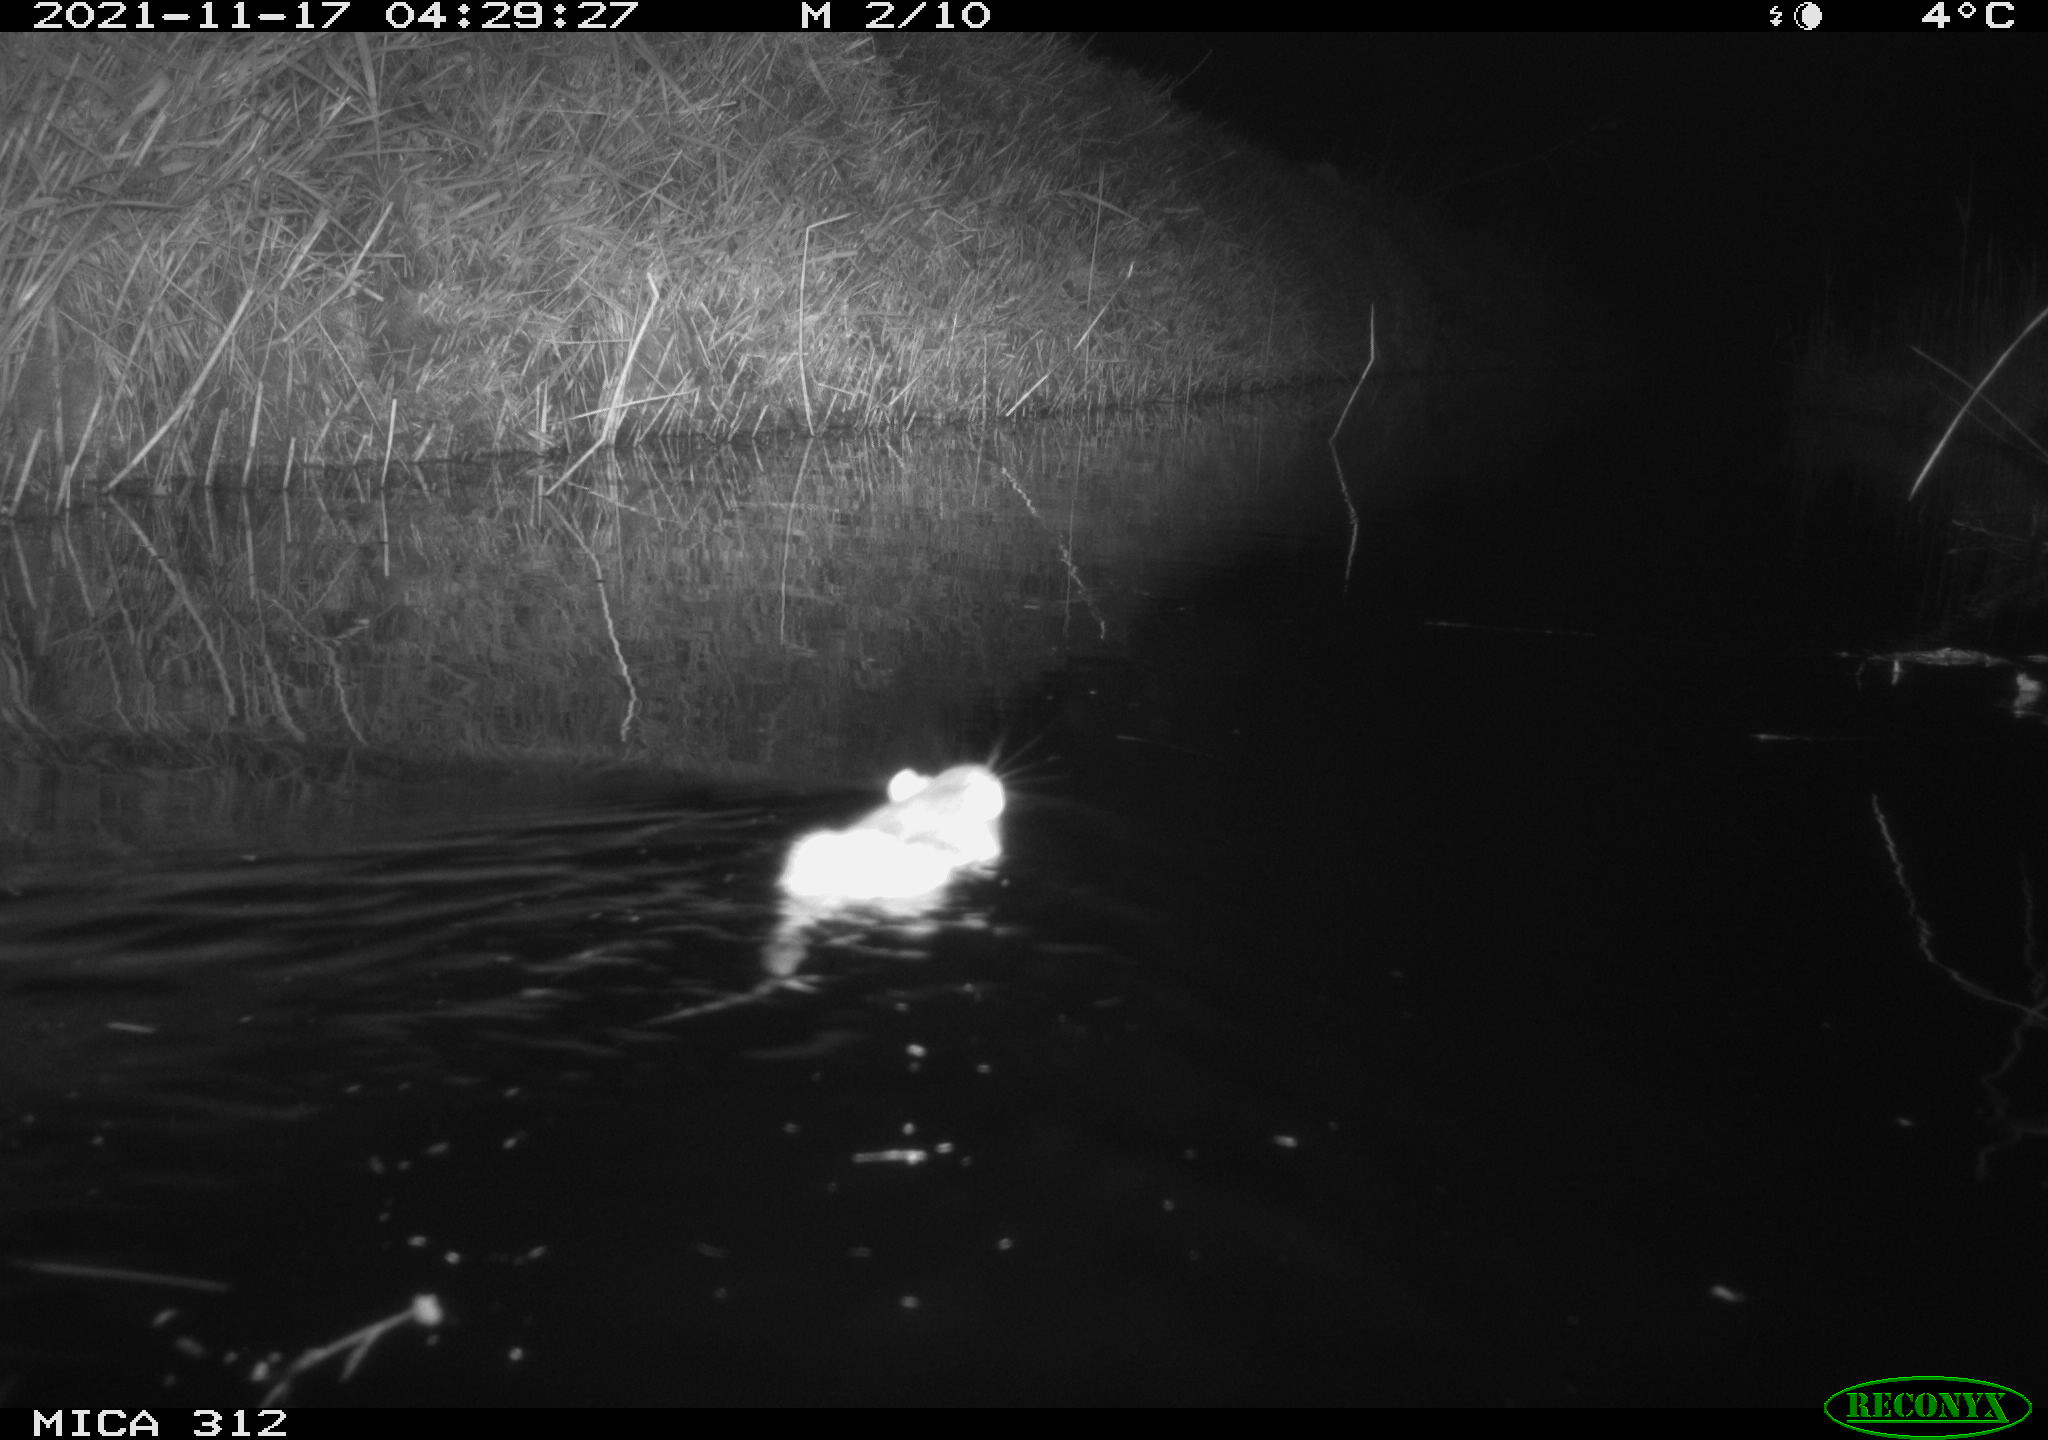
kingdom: Animalia
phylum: Chordata
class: Mammalia
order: Rodentia
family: Muridae
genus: Rattus
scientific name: Rattus norvegicus
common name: Brown rat
